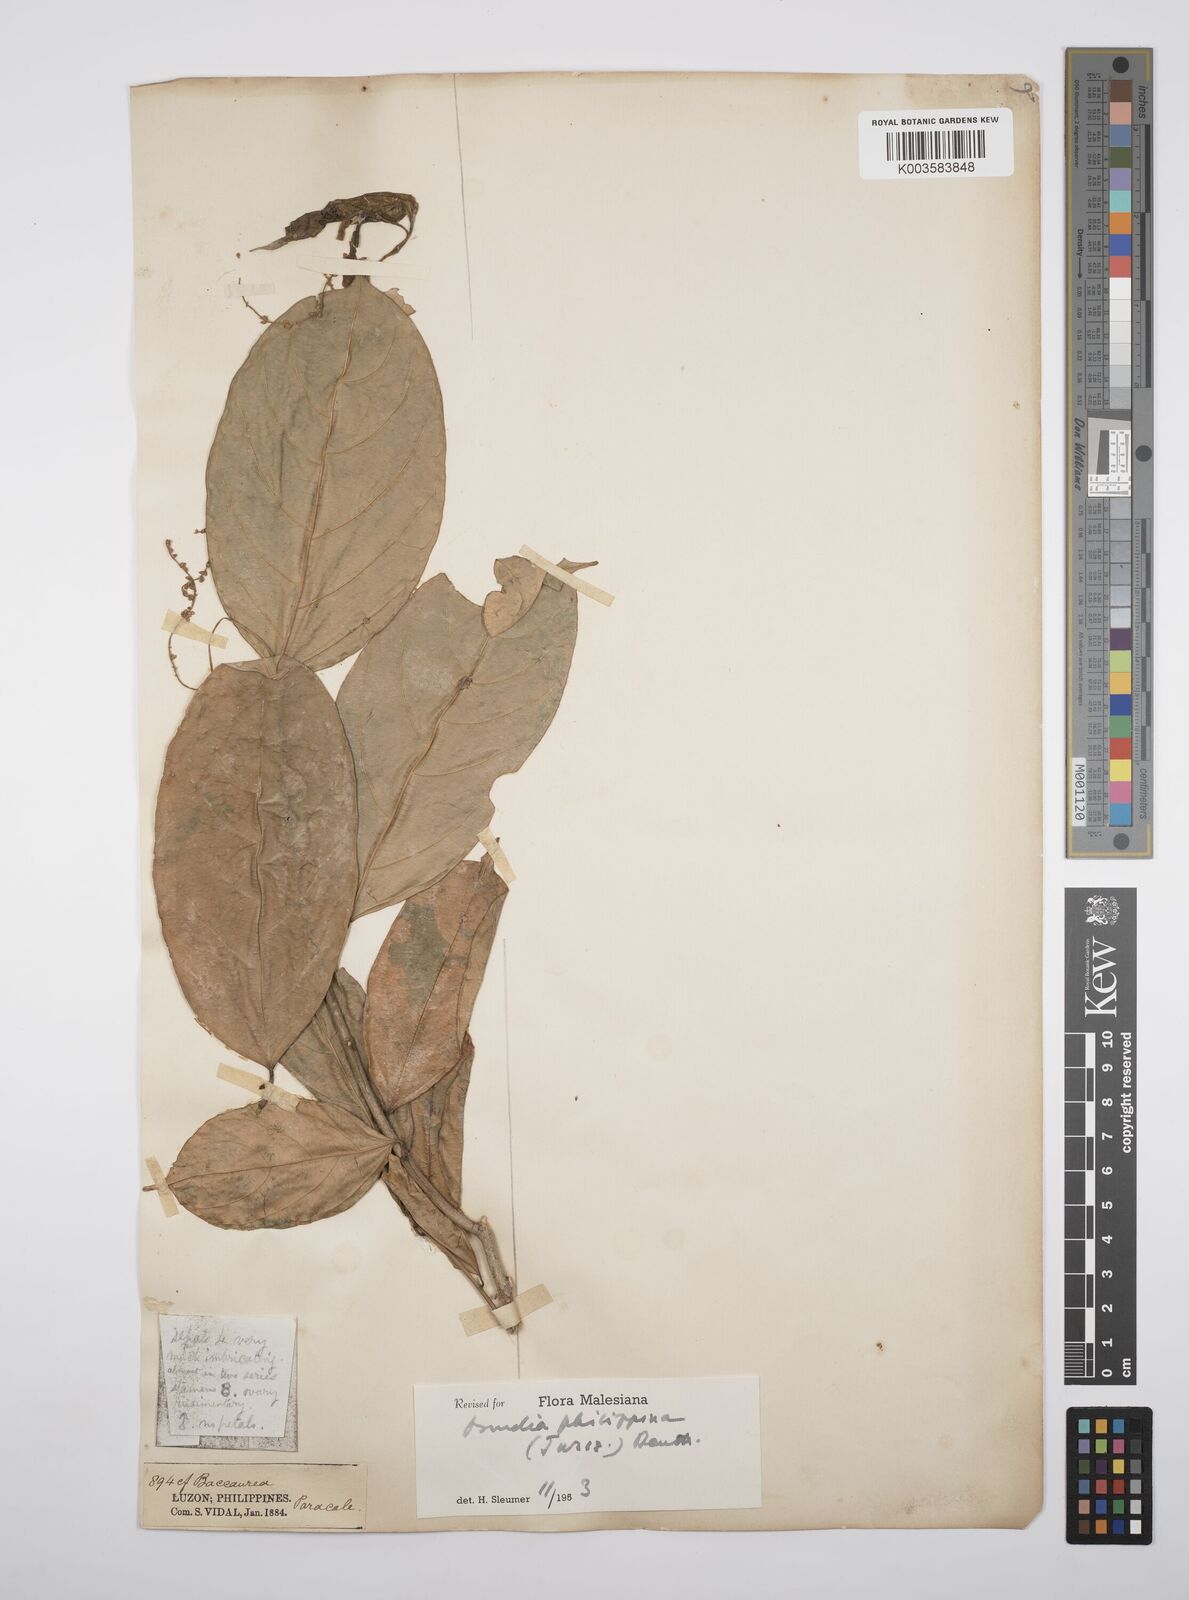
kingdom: Plantae
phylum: Tracheophyta
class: Magnoliopsida
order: Malpighiales
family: Salicaceae
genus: Osmelia
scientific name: Osmelia philippina
